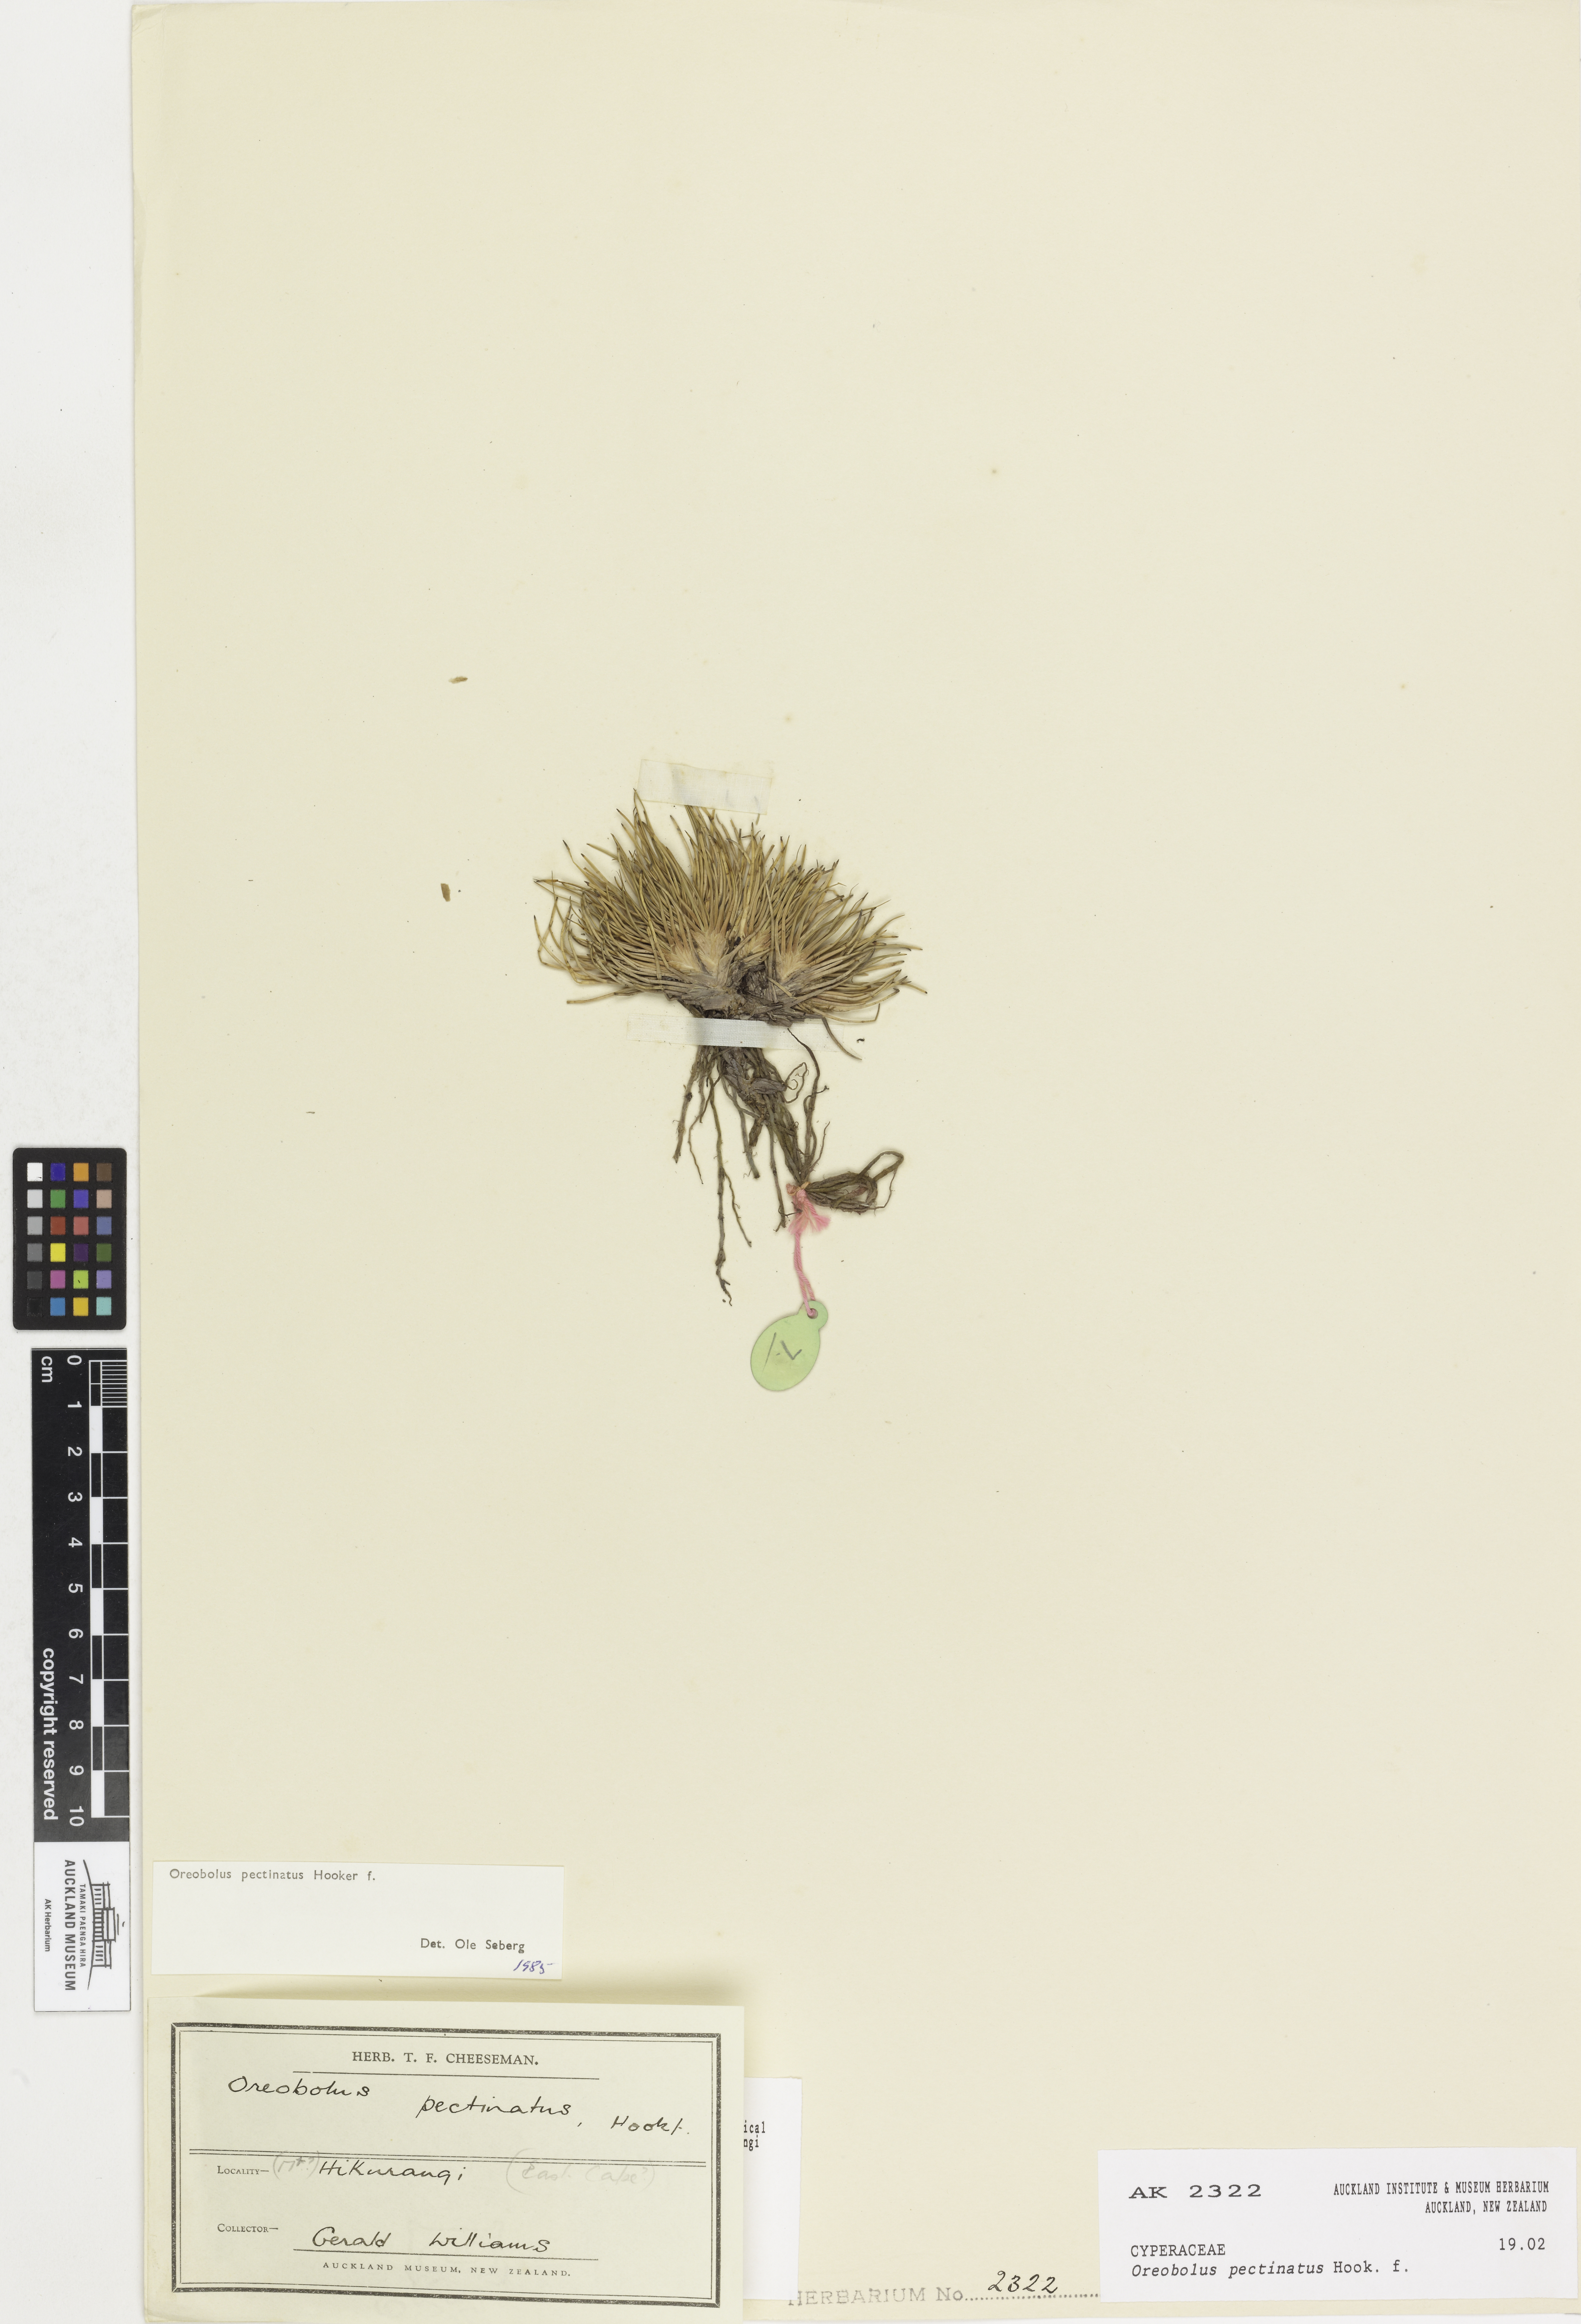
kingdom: Plantae
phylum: Tracheophyta
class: Liliopsida
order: Poales
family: Cyperaceae
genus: Oreobolus
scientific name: Oreobolus pectinatus
